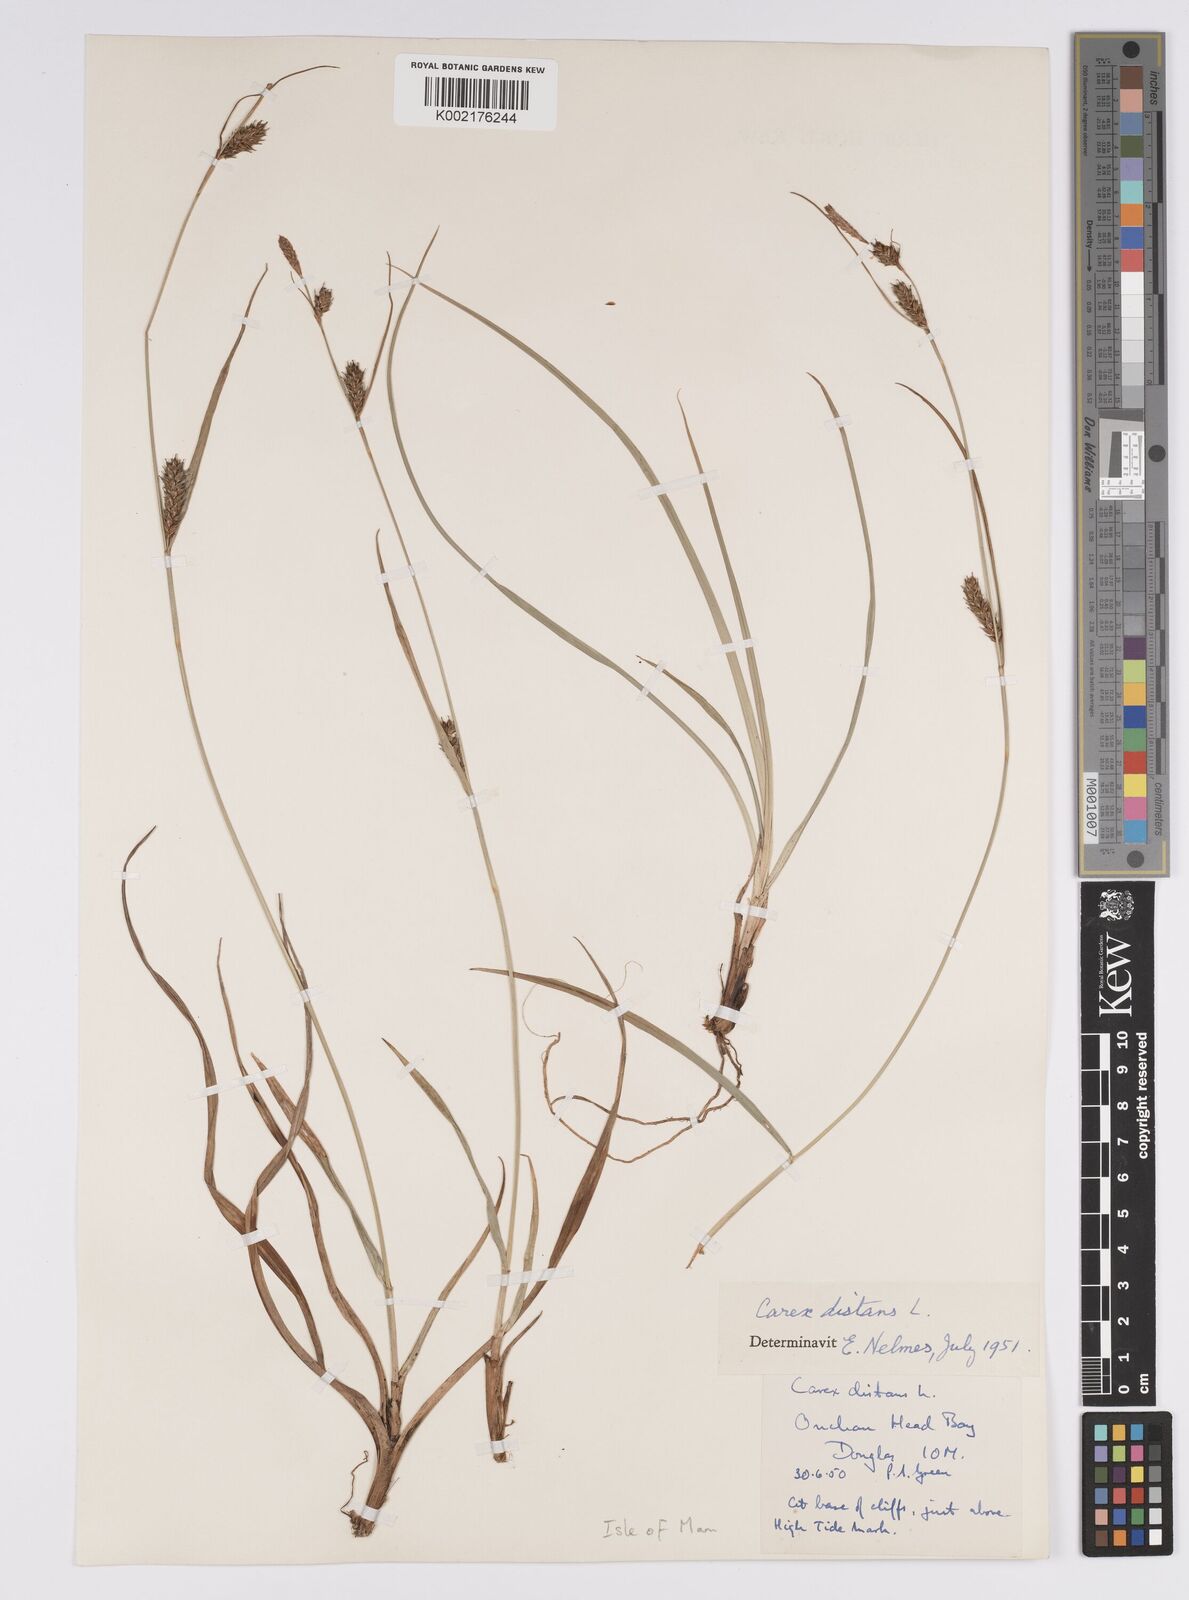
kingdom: Plantae
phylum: Tracheophyta
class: Liliopsida
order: Poales
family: Cyperaceae
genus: Carex
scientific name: Carex distans
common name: Distant sedge
